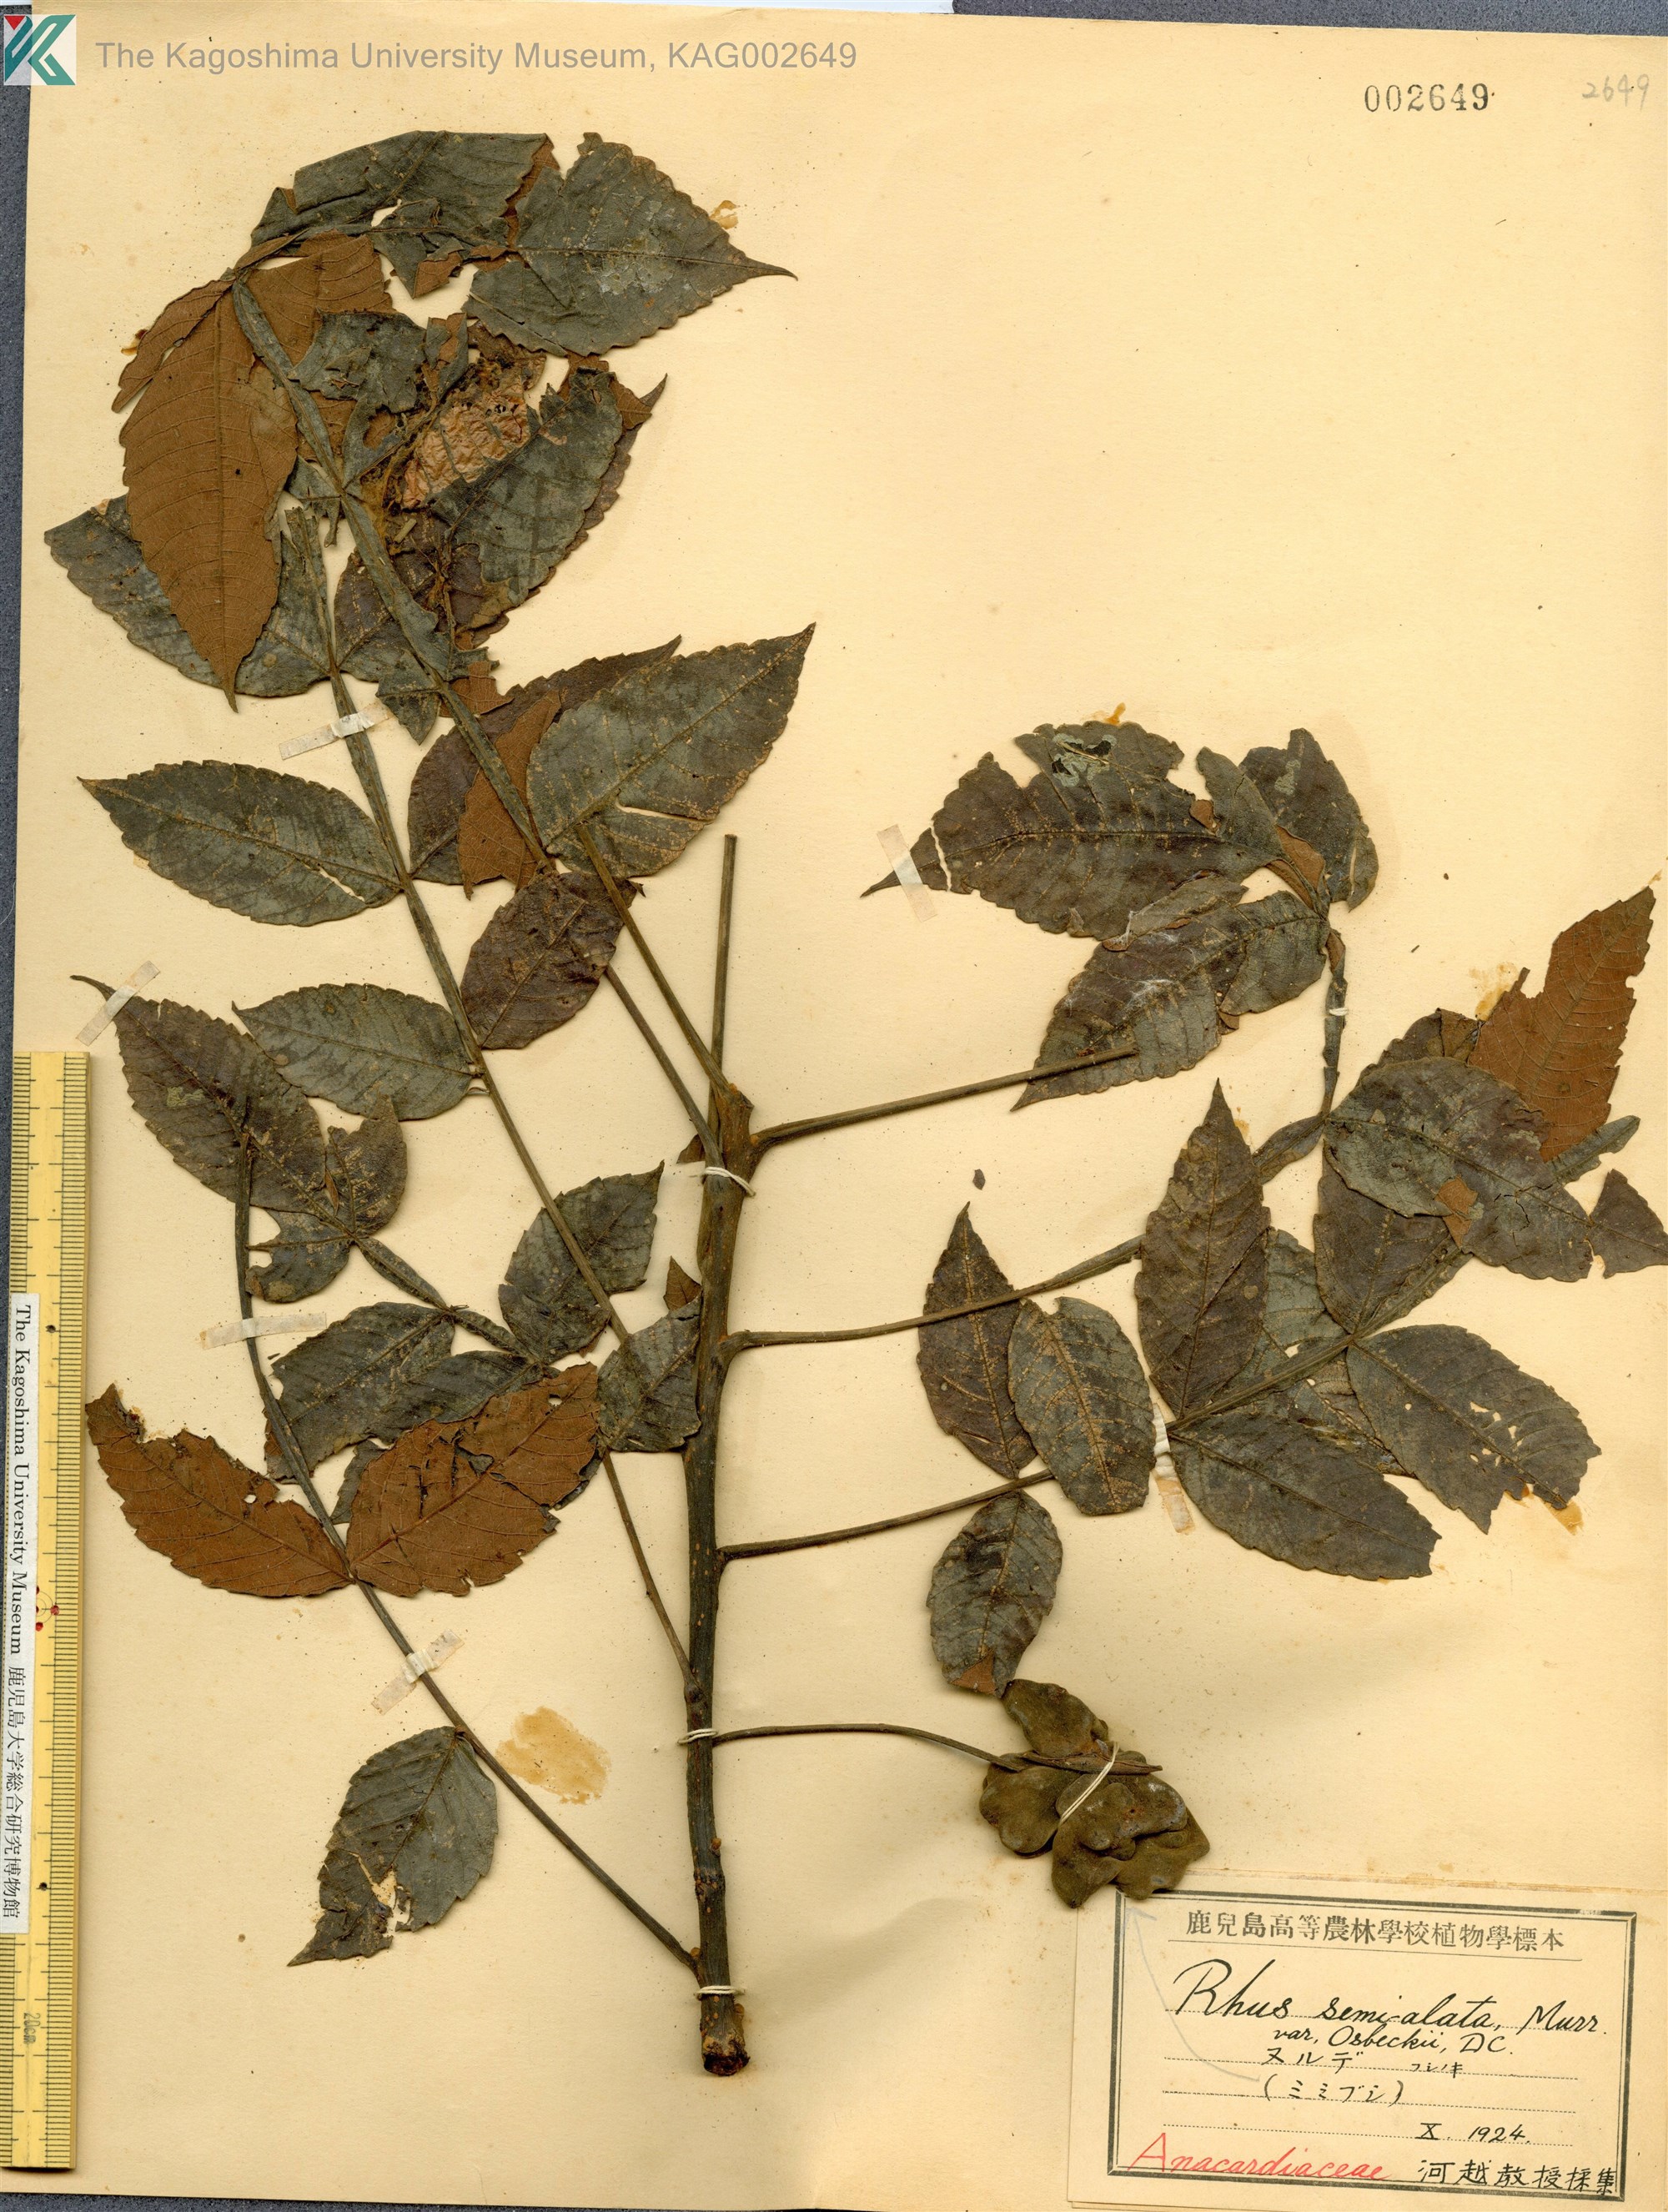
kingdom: Plantae
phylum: Tracheophyta
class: Magnoliopsida
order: Sapindales
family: Simaroubaceae
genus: Brucea
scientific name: Brucea javanica
